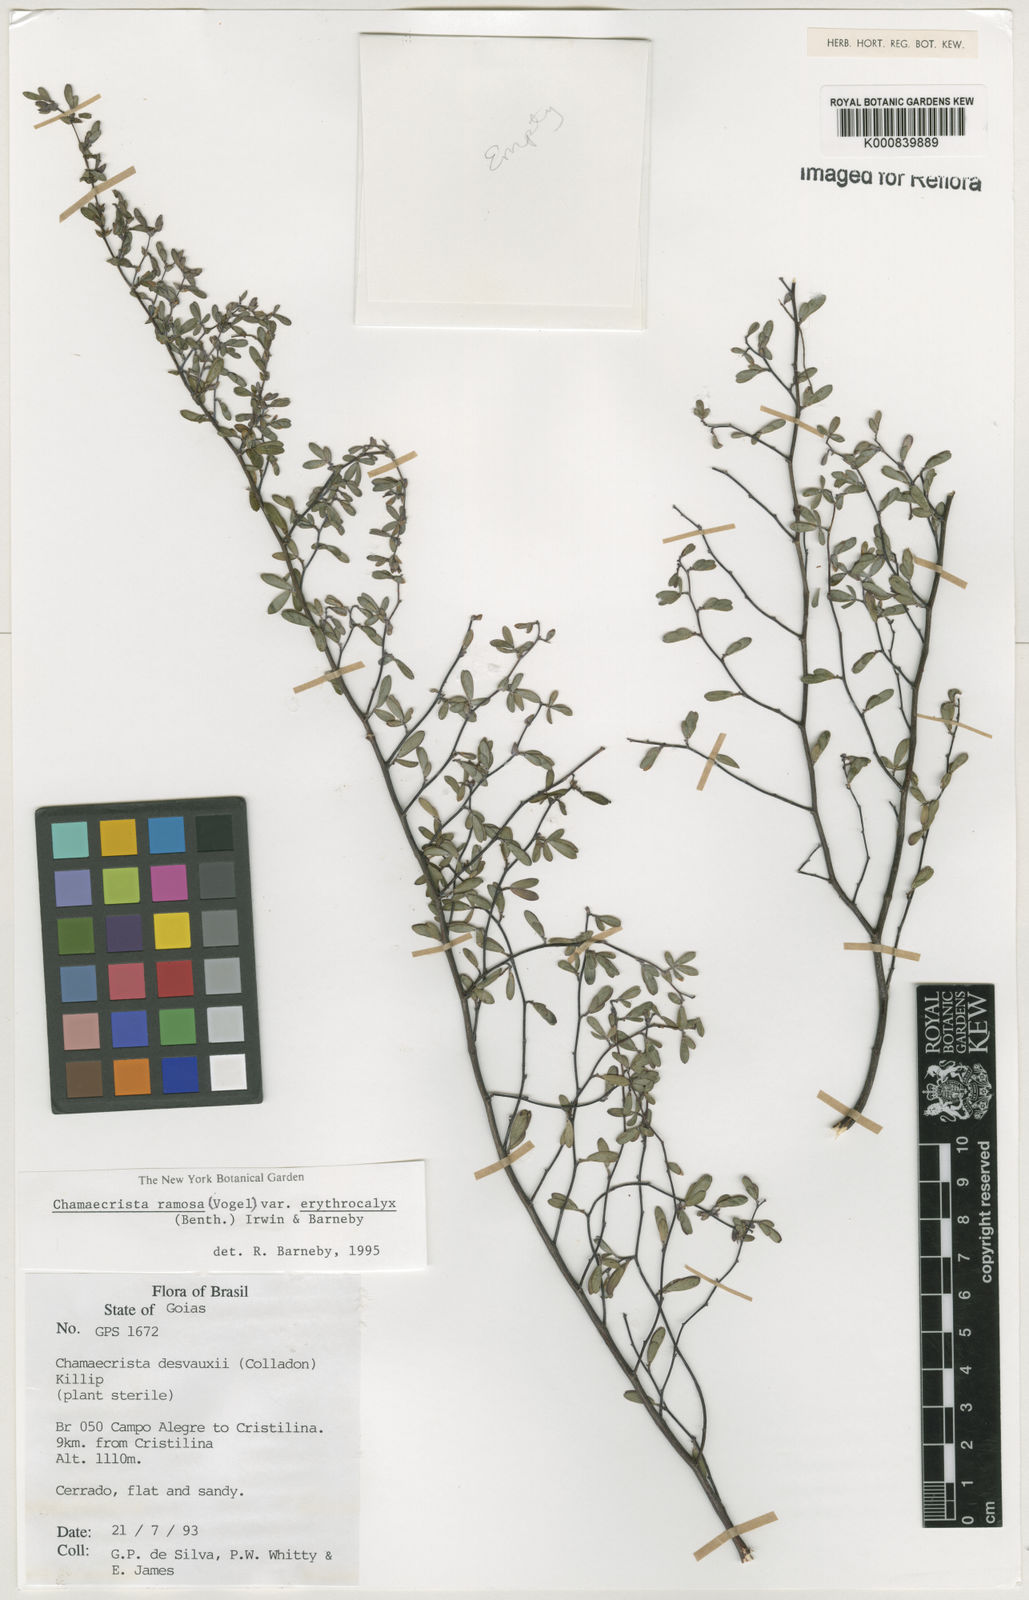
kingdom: Plantae
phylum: Tracheophyta
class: Magnoliopsida
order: Fabales
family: Fabaceae
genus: Chamaecrista
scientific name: Chamaecrista ramosa
